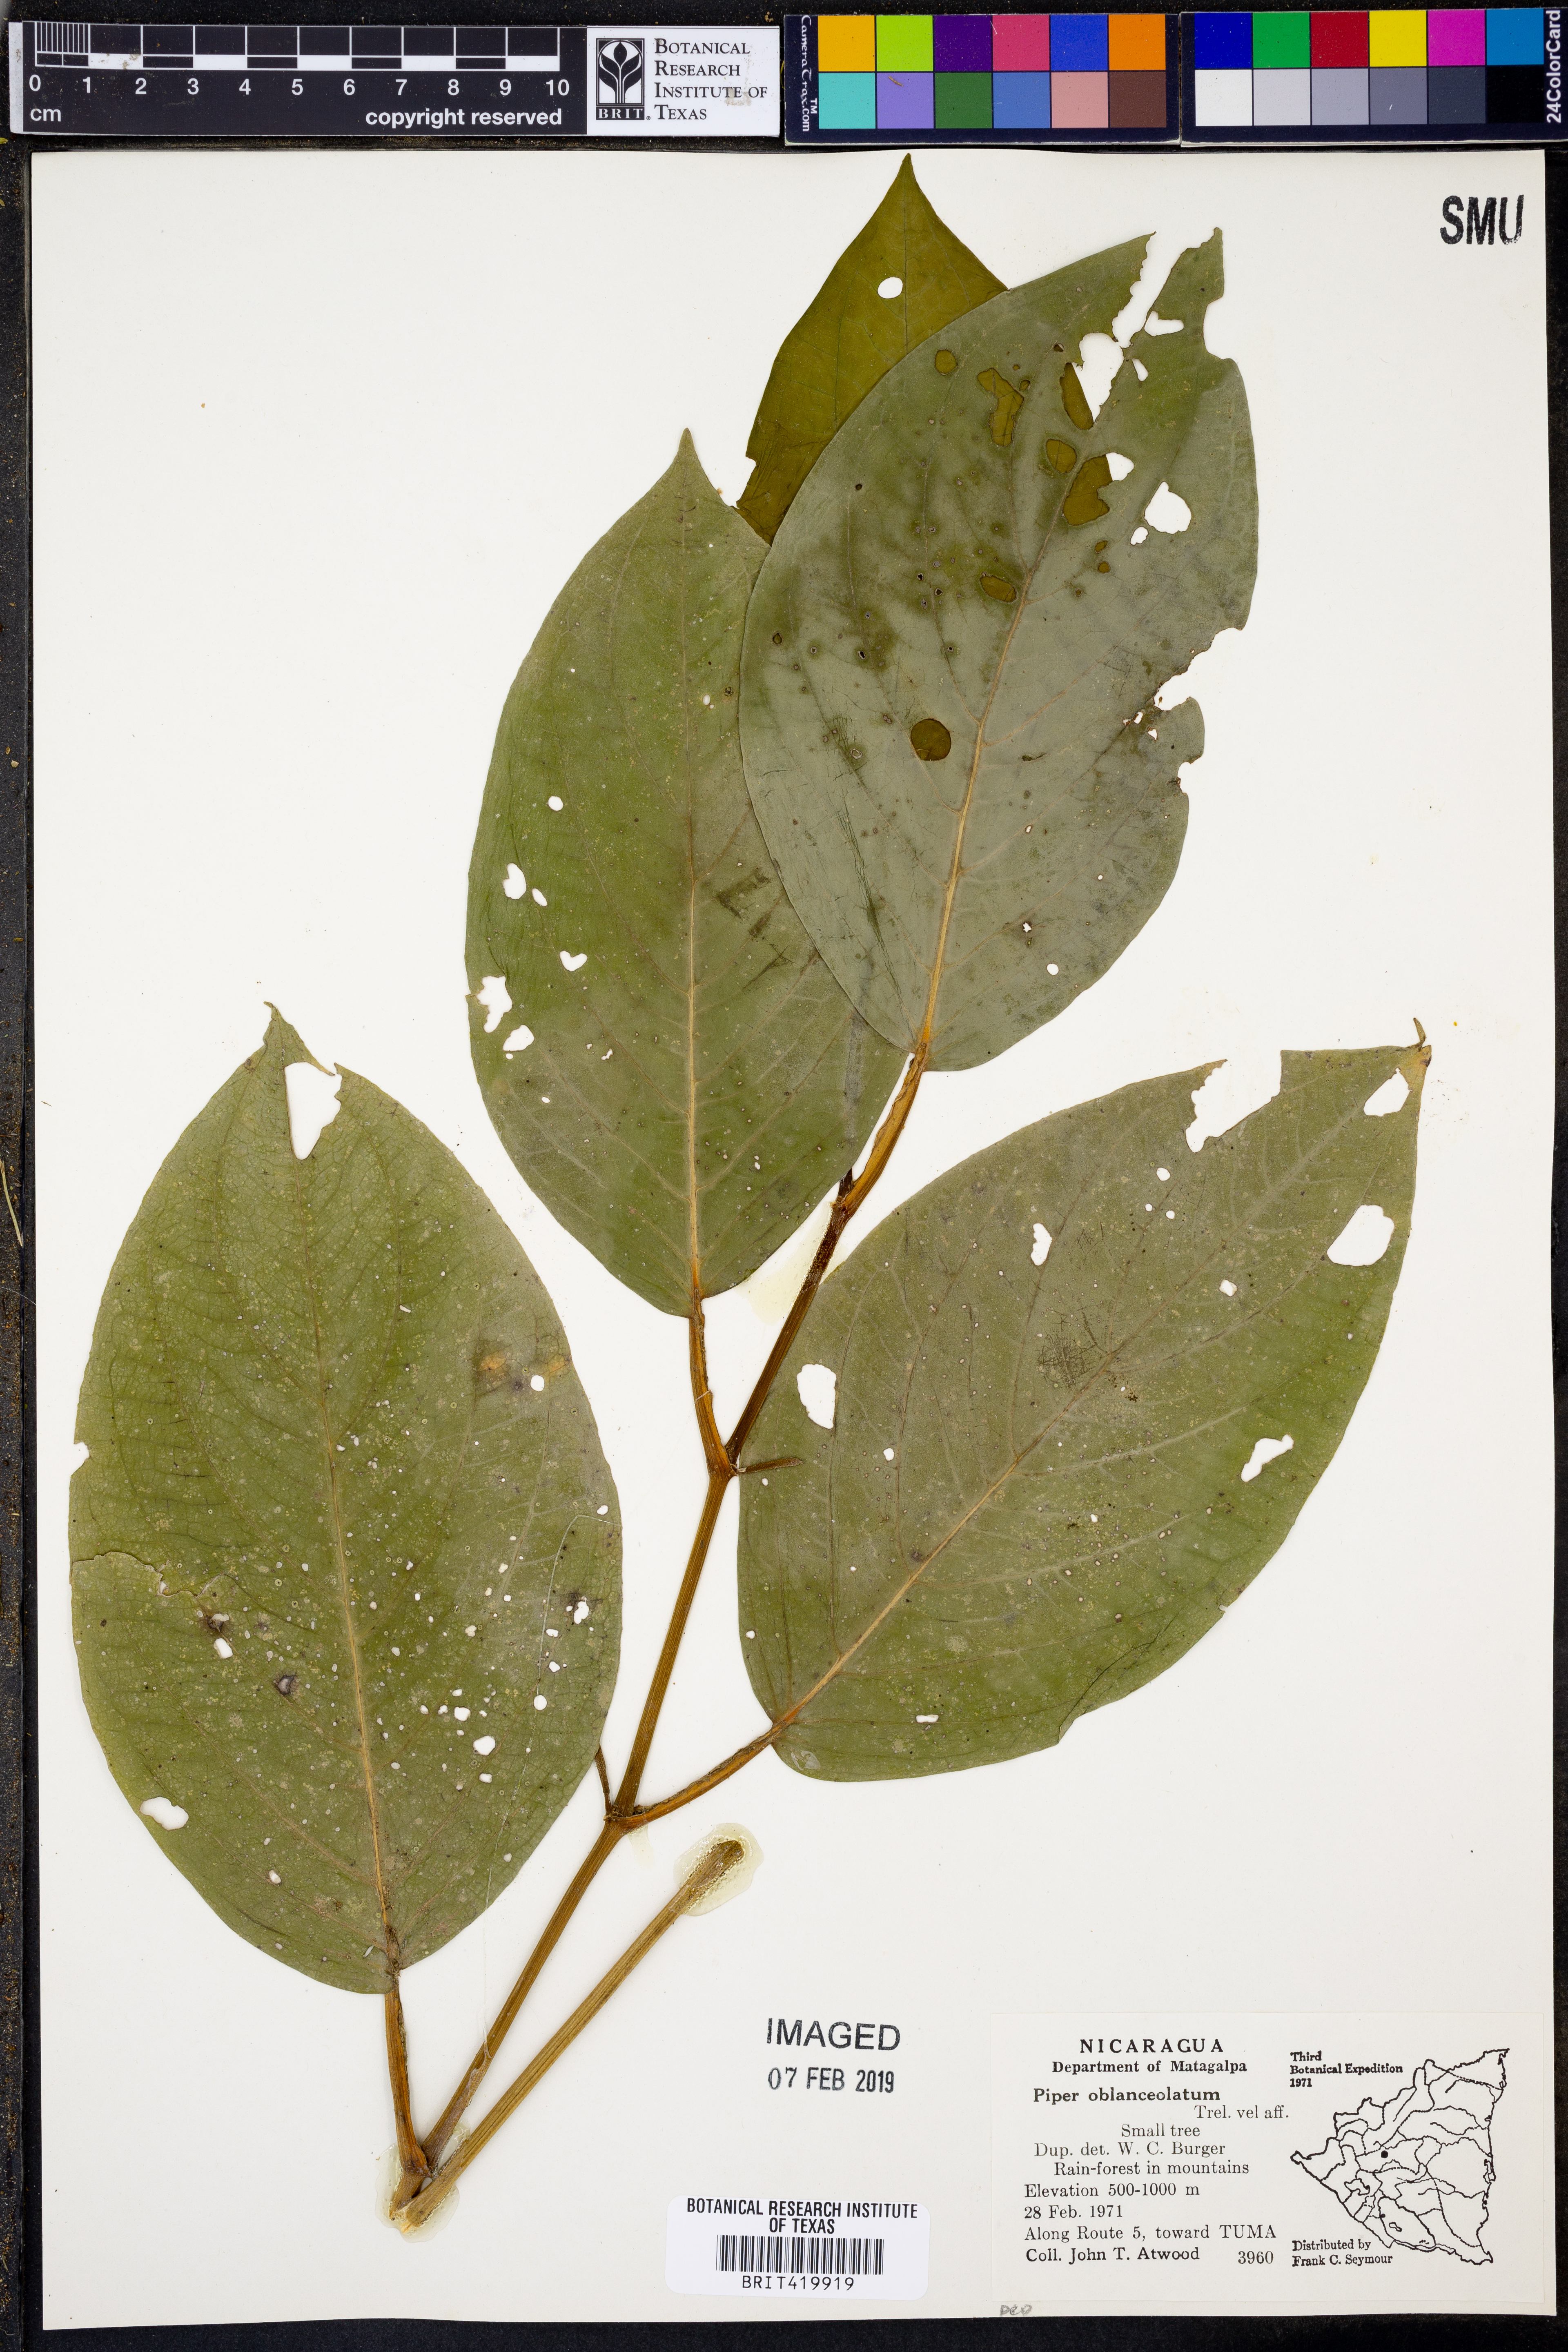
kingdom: Plantae
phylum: Tracheophyta
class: Magnoliopsida
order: Piperales
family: Piperaceae
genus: Piper
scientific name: Piper oblanceolatum
